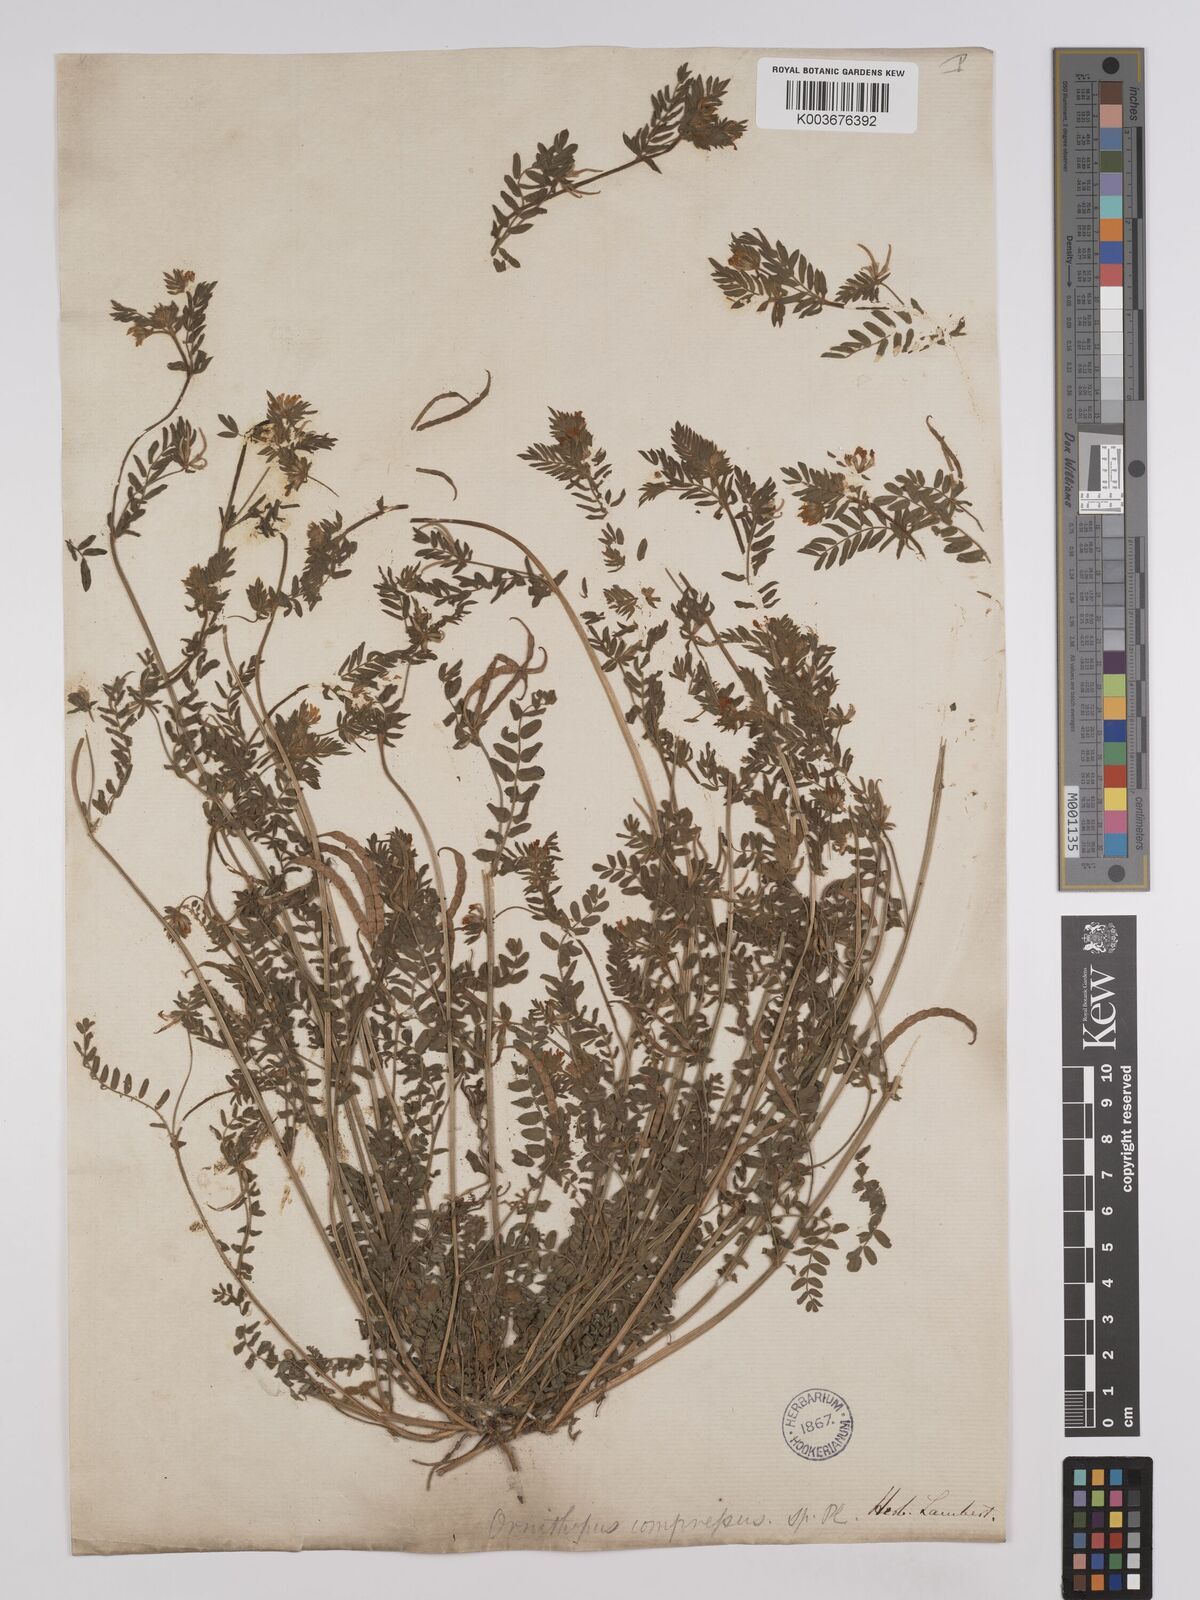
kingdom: Plantae
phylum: Tracheophyta
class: Magnoliopsida
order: Fabales
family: Fabaceae
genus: Ornithopus
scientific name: Ornithopus compressus
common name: Yellow serradella
